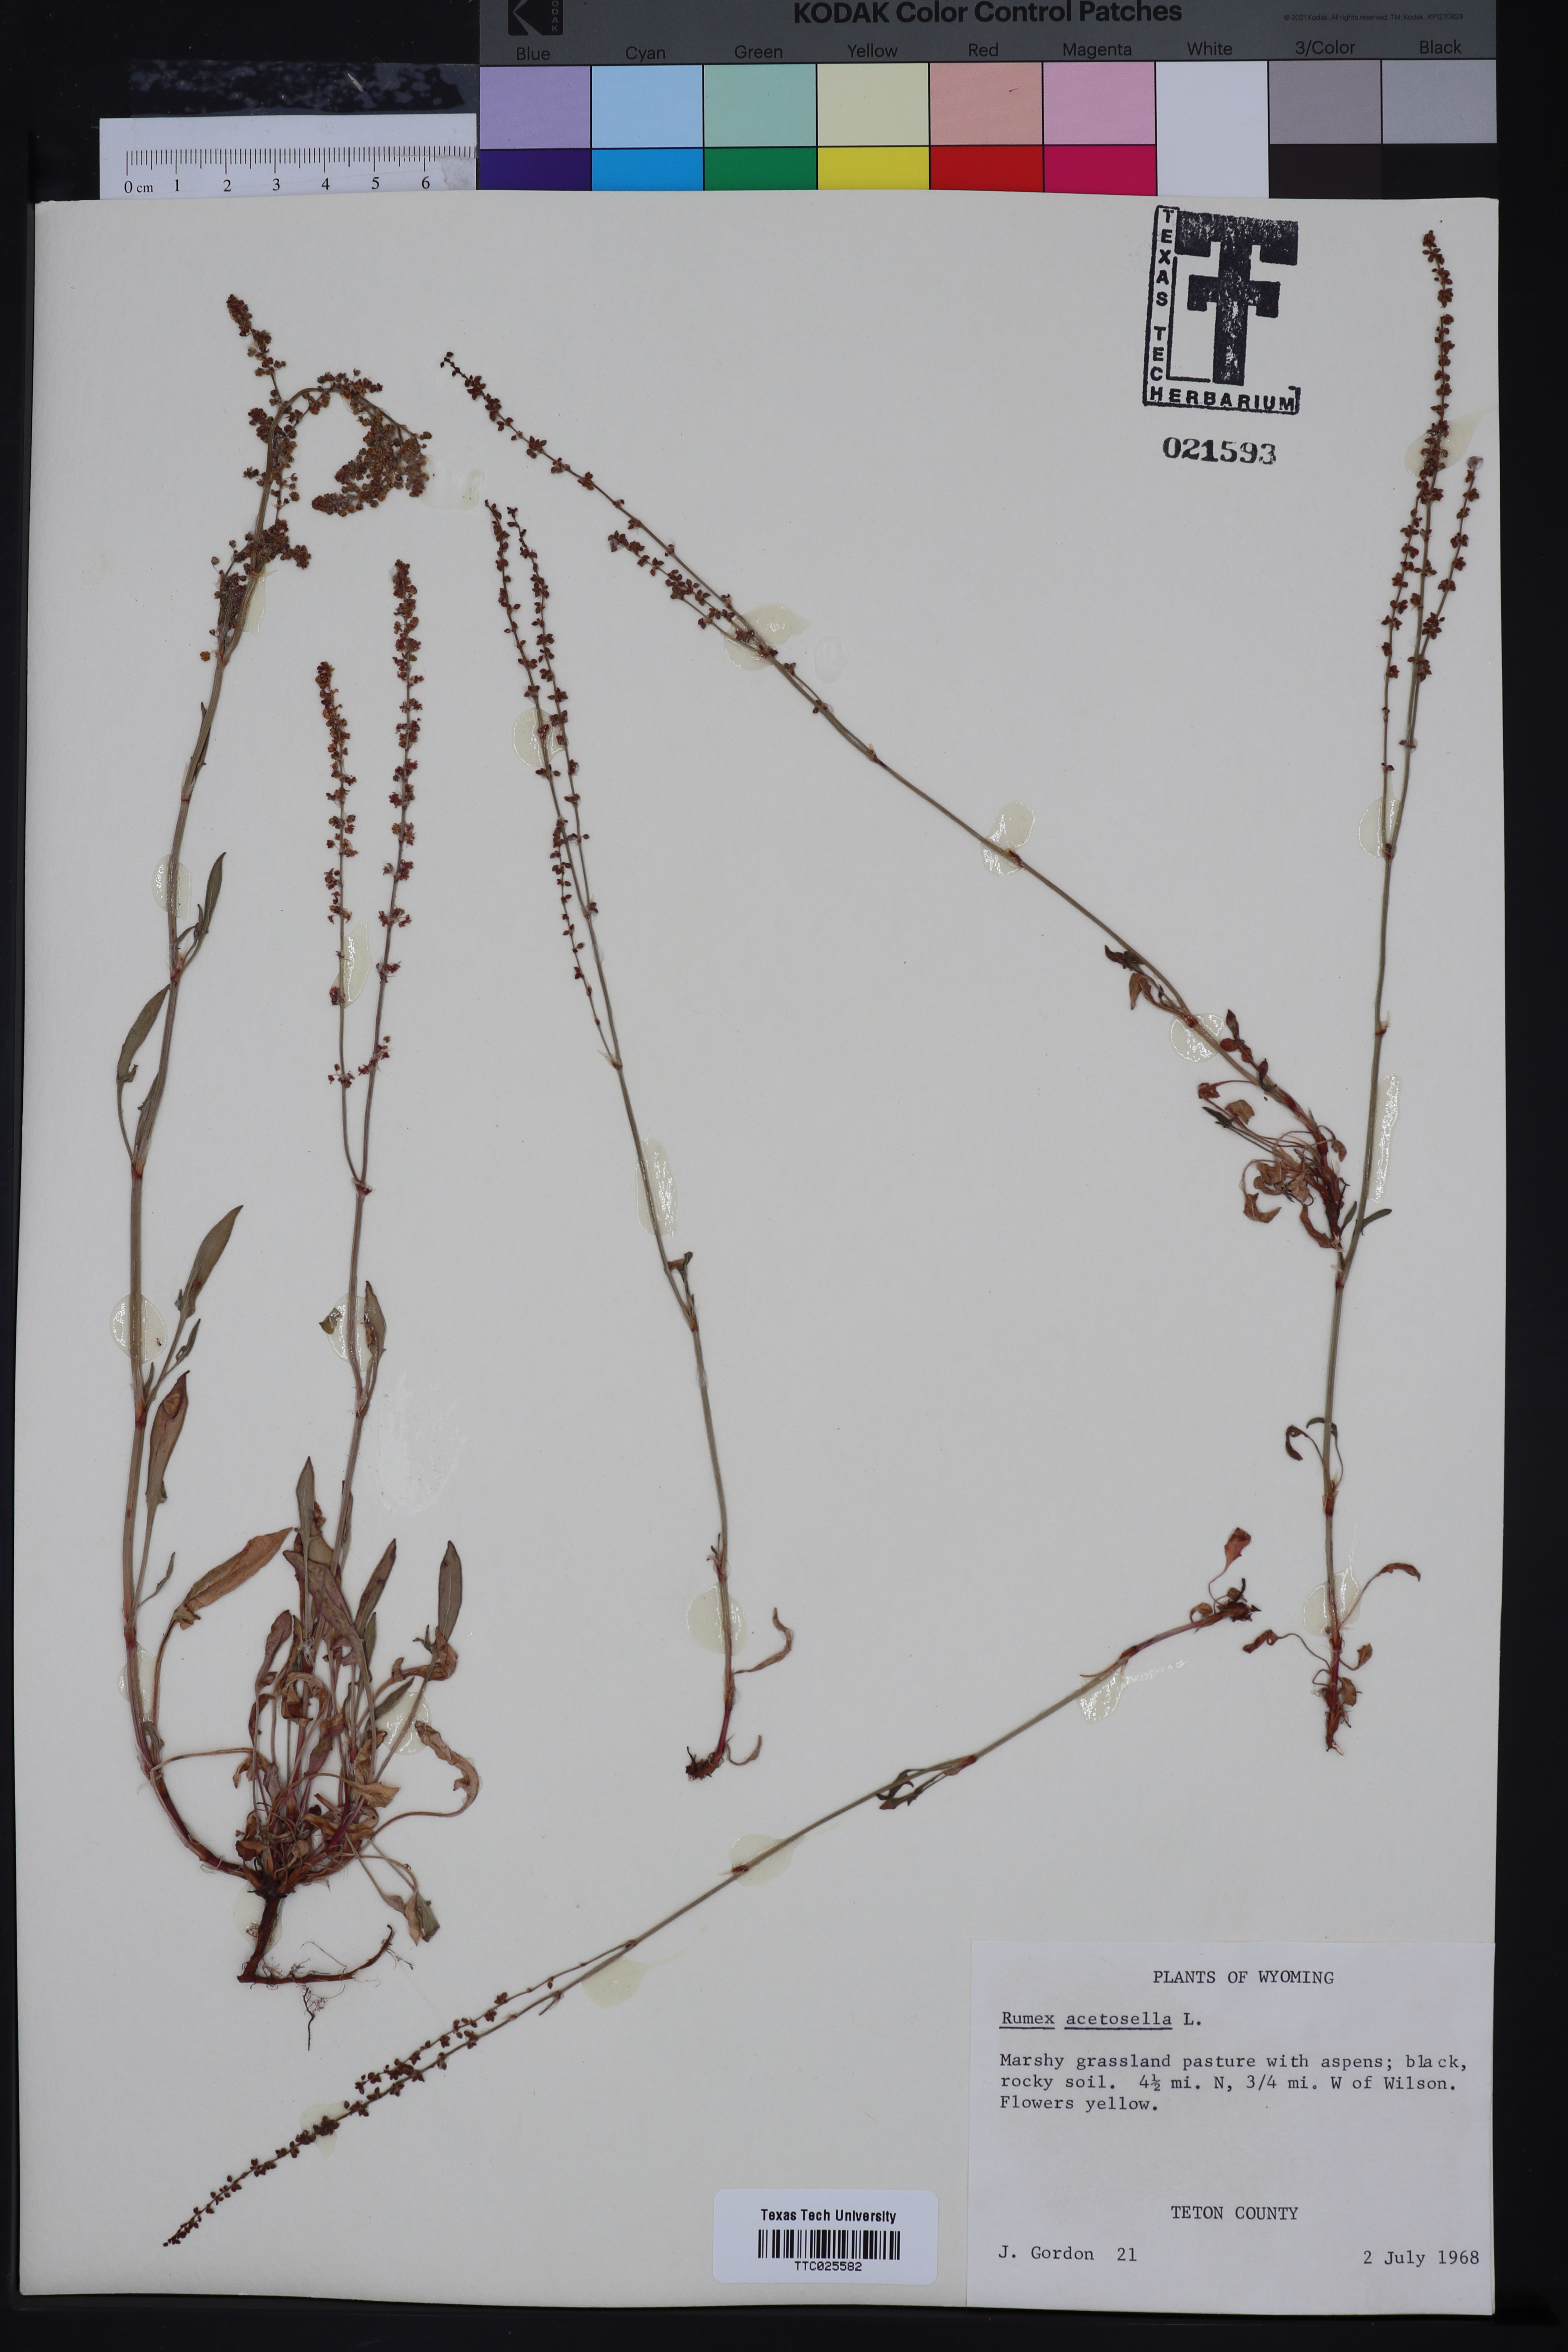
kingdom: Plantae
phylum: Tracheophyta
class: Magnoliopsida
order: Caryophyllales
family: Polygonaceae
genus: Rumex
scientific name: Rumex acetosa
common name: Garden sorrel
